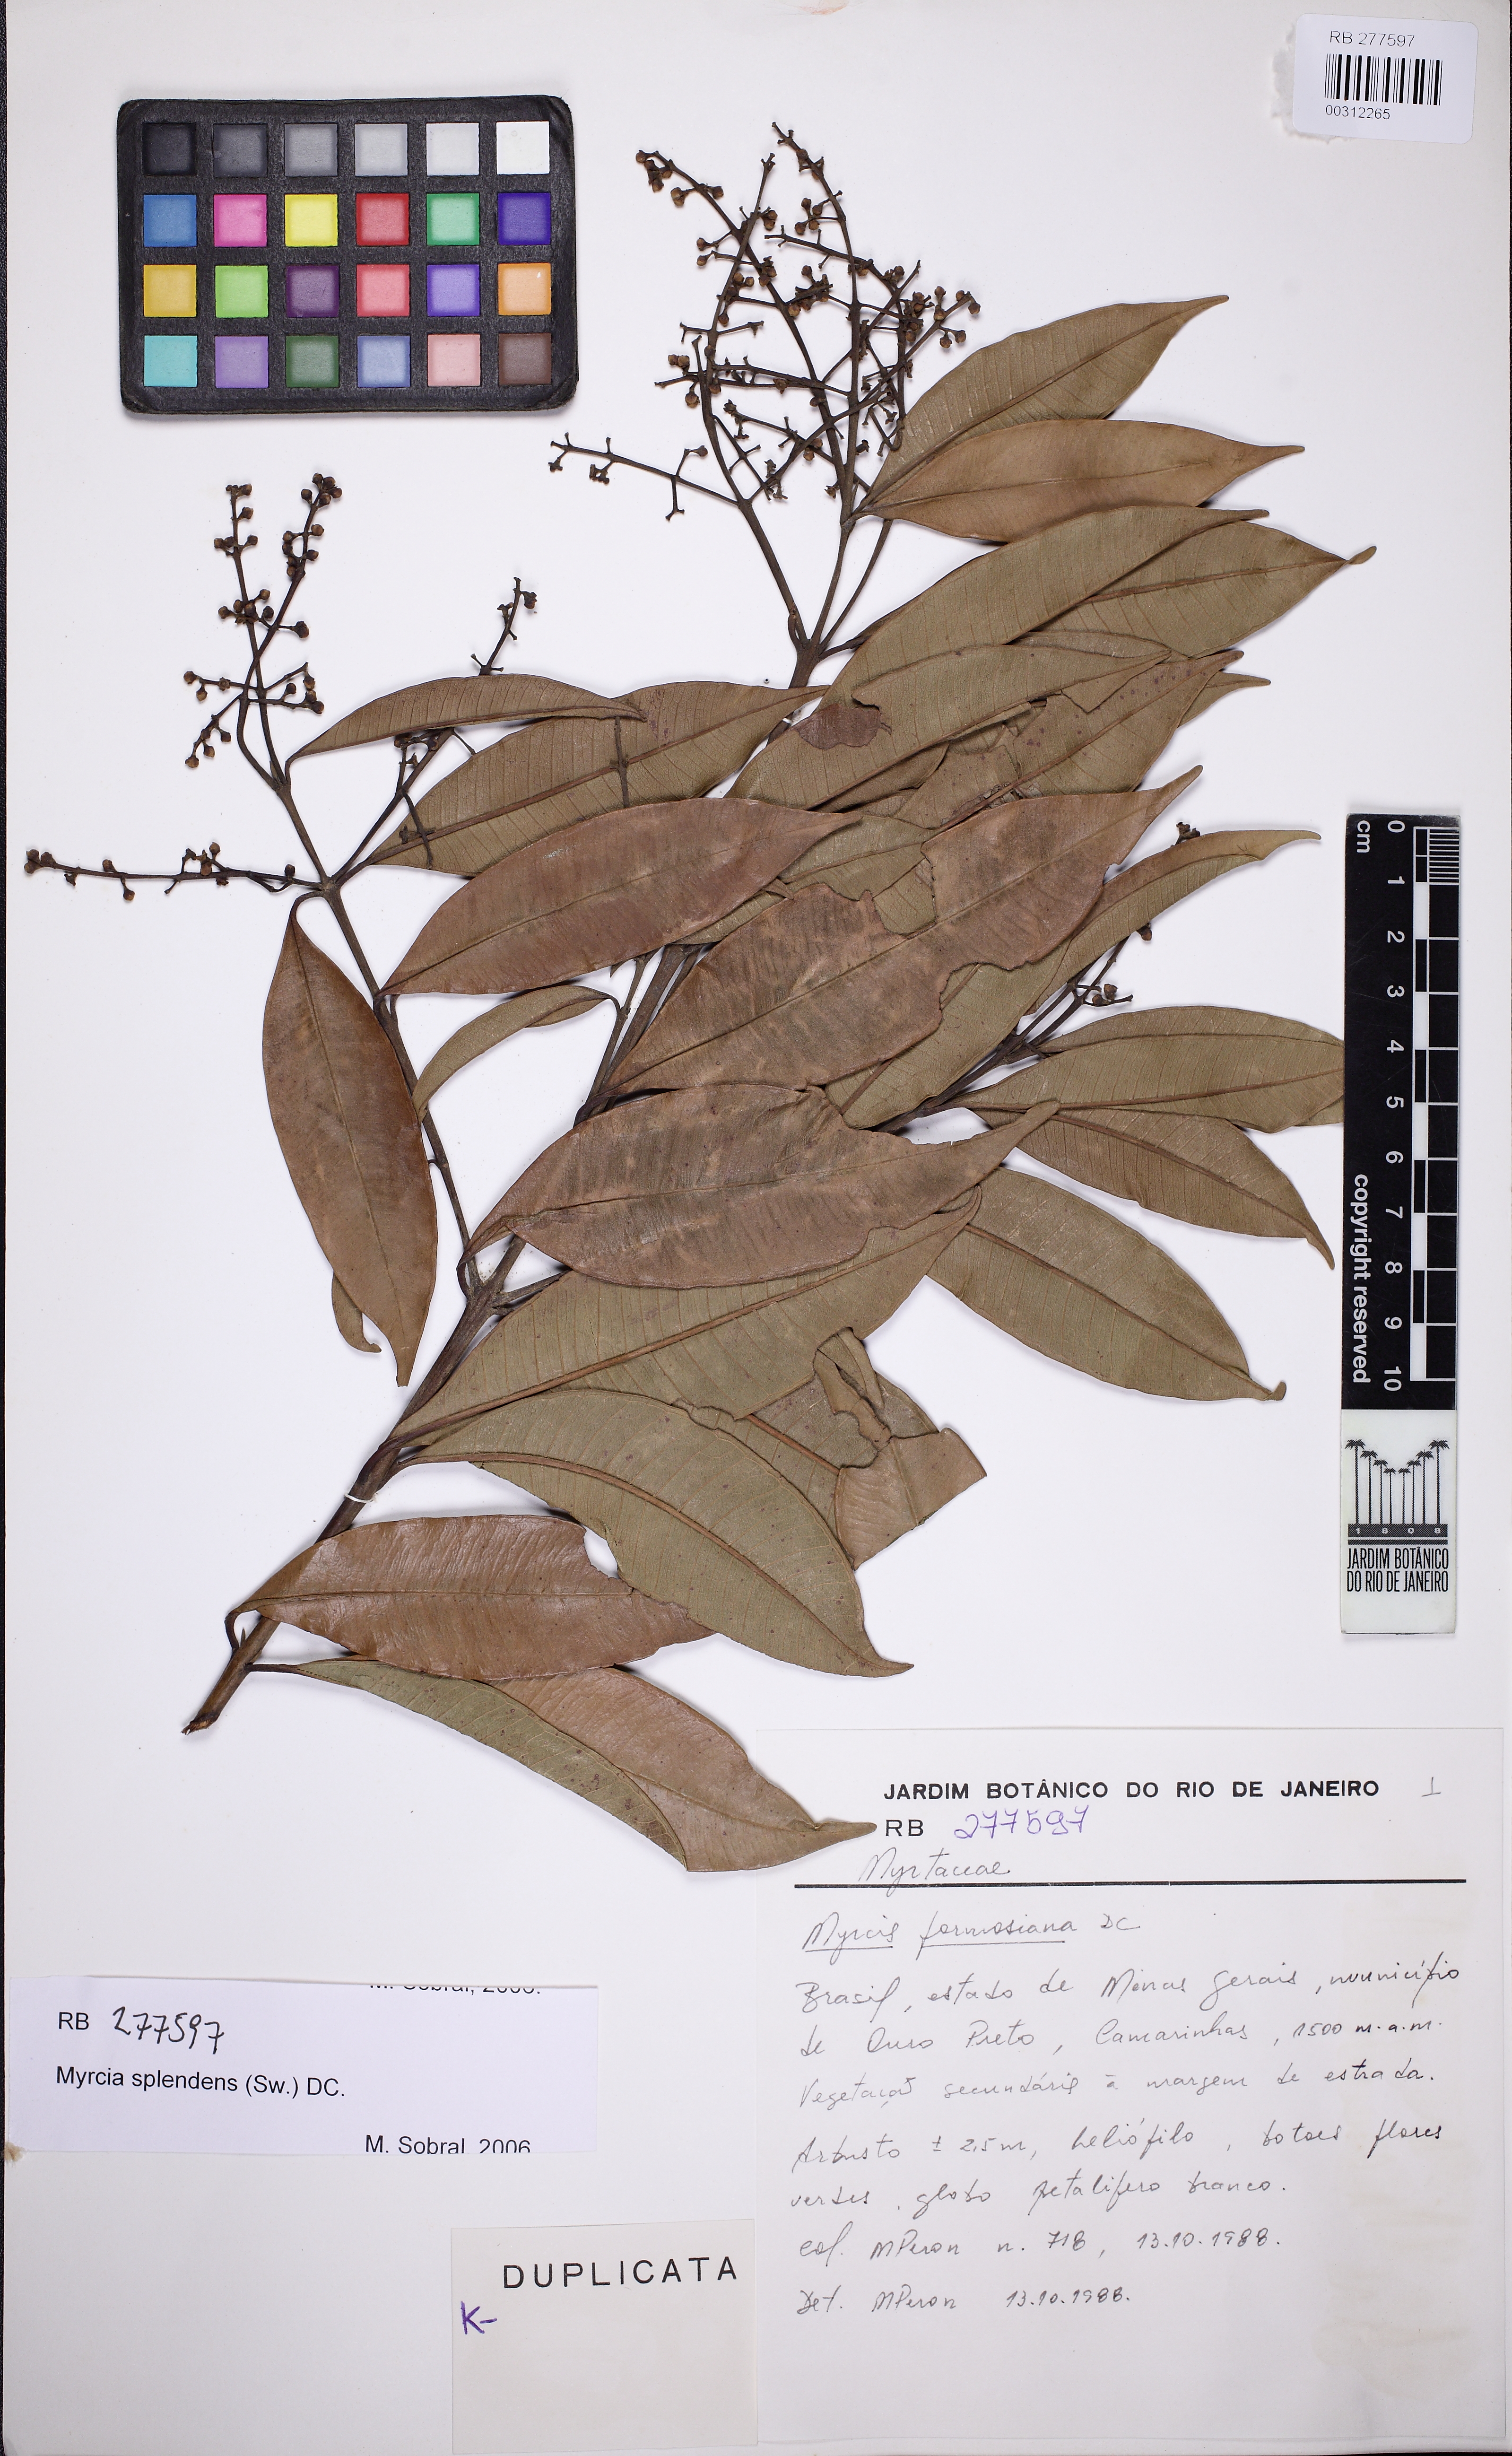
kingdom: Plantae
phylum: Tracheophyta
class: Magnoliopsida
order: Myrtales
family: Myrtaceae
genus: Myrcia
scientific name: Myrcia splendens
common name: Surinam cherry
